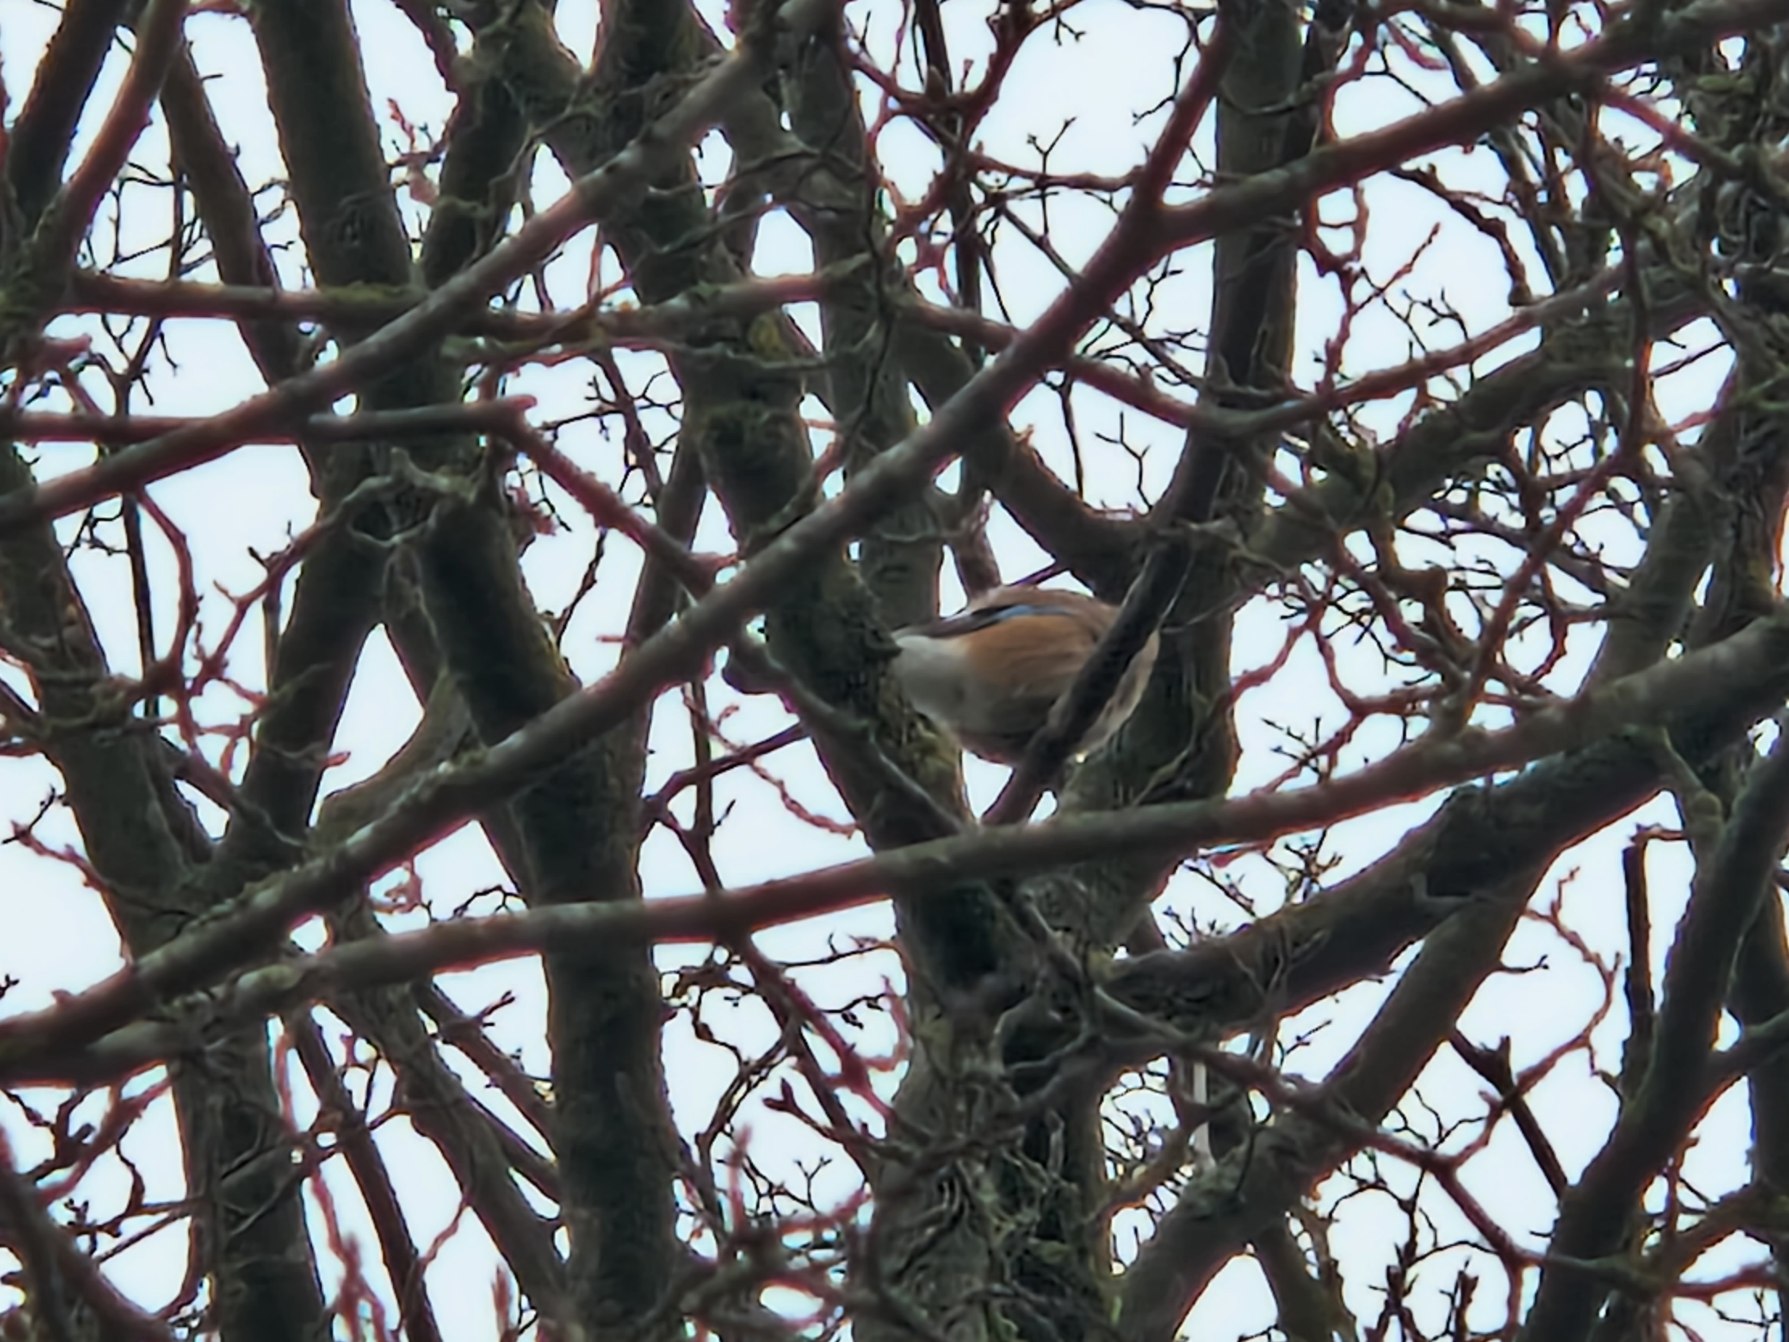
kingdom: Animalia
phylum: Chordata
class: Aves
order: Passeriformes
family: Corvidae
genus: Garrulus
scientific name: Garrulus glandarius
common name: Skovskade
